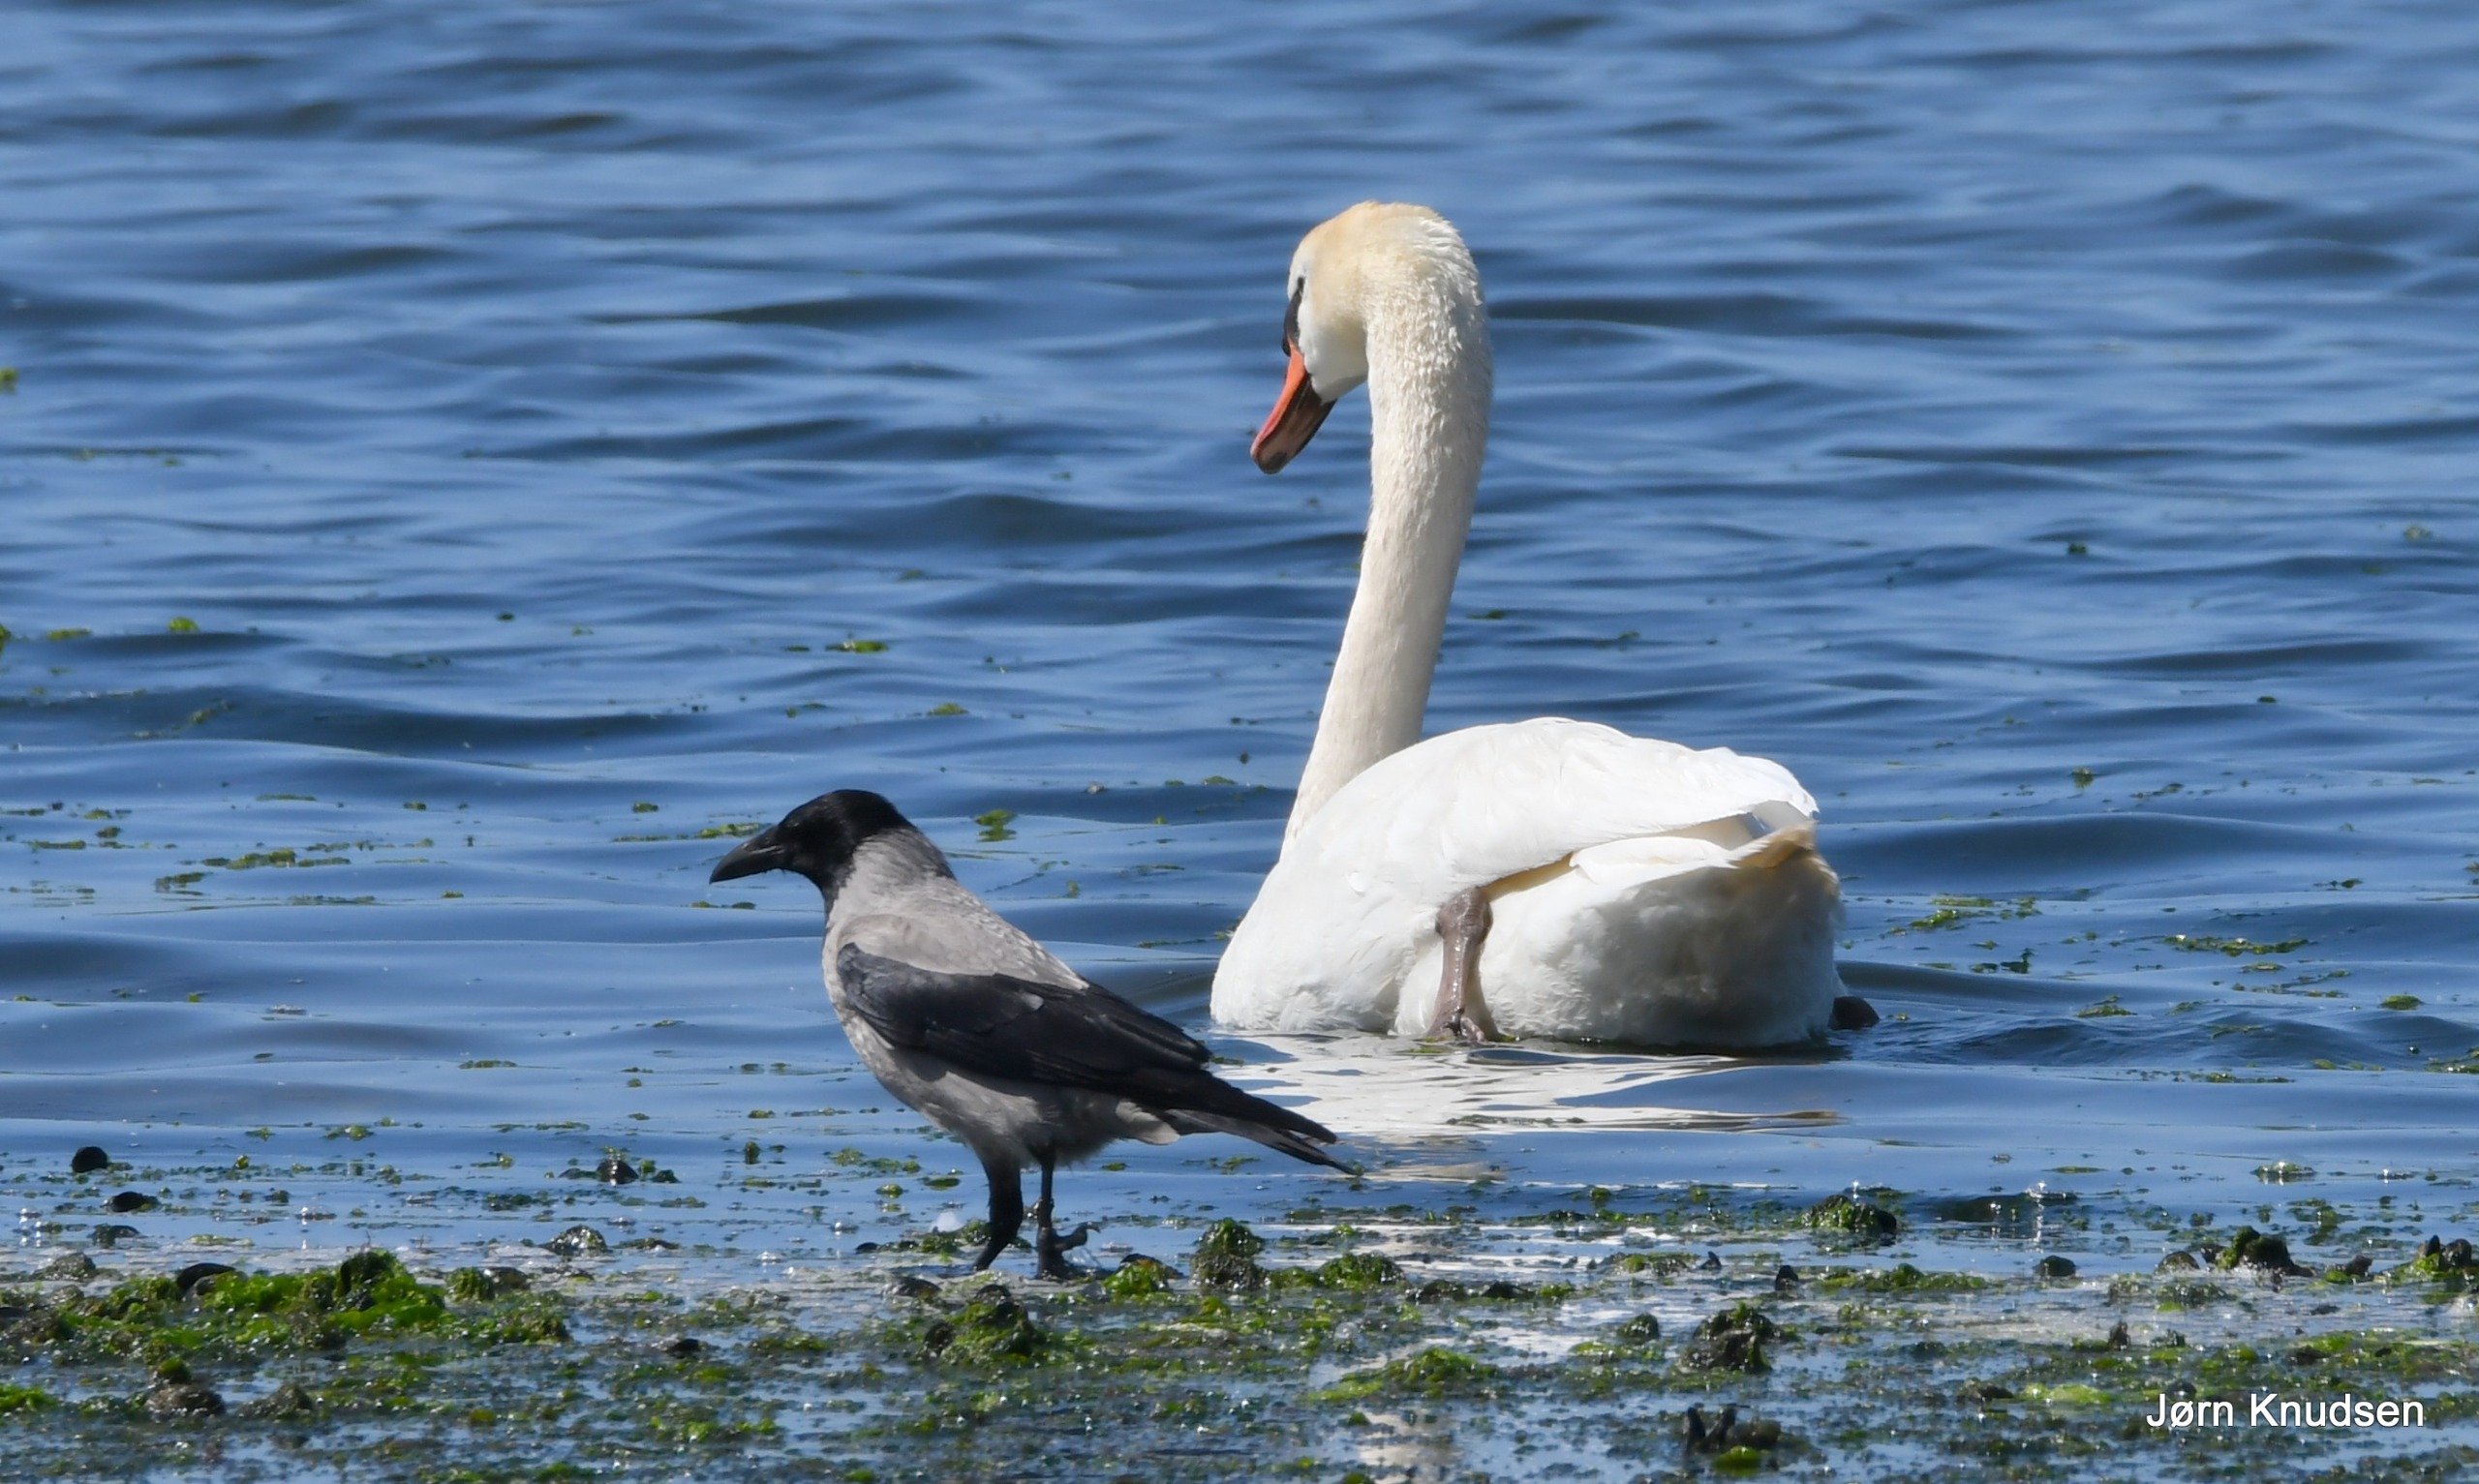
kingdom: Animalia
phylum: Chordata
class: Aves
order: Passeriformes
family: Corvidae
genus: Corvus
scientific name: Corvus cornix
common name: Gråkrage
